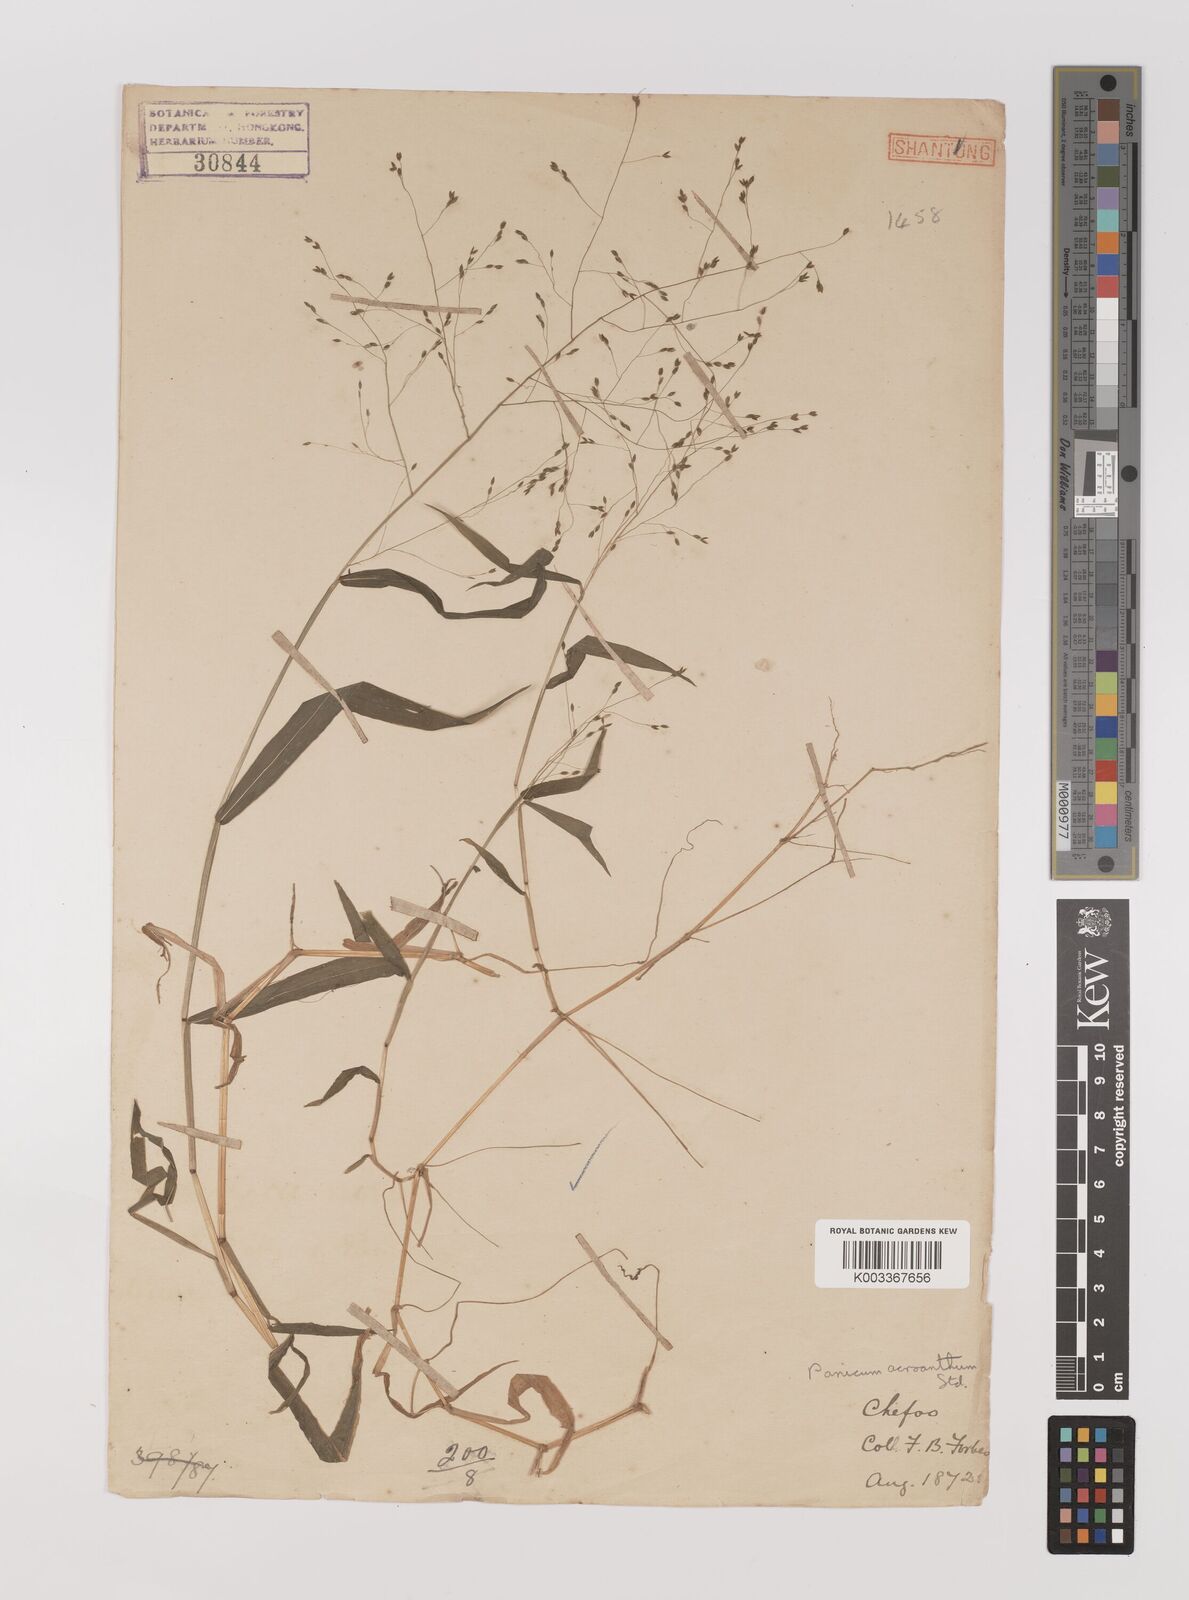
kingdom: Plantae
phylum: Tracheophyta
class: Liliopsida
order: Poales
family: Poaceae
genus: Panicum
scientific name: Panicum bisulcatum
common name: Japanese panicgrass
